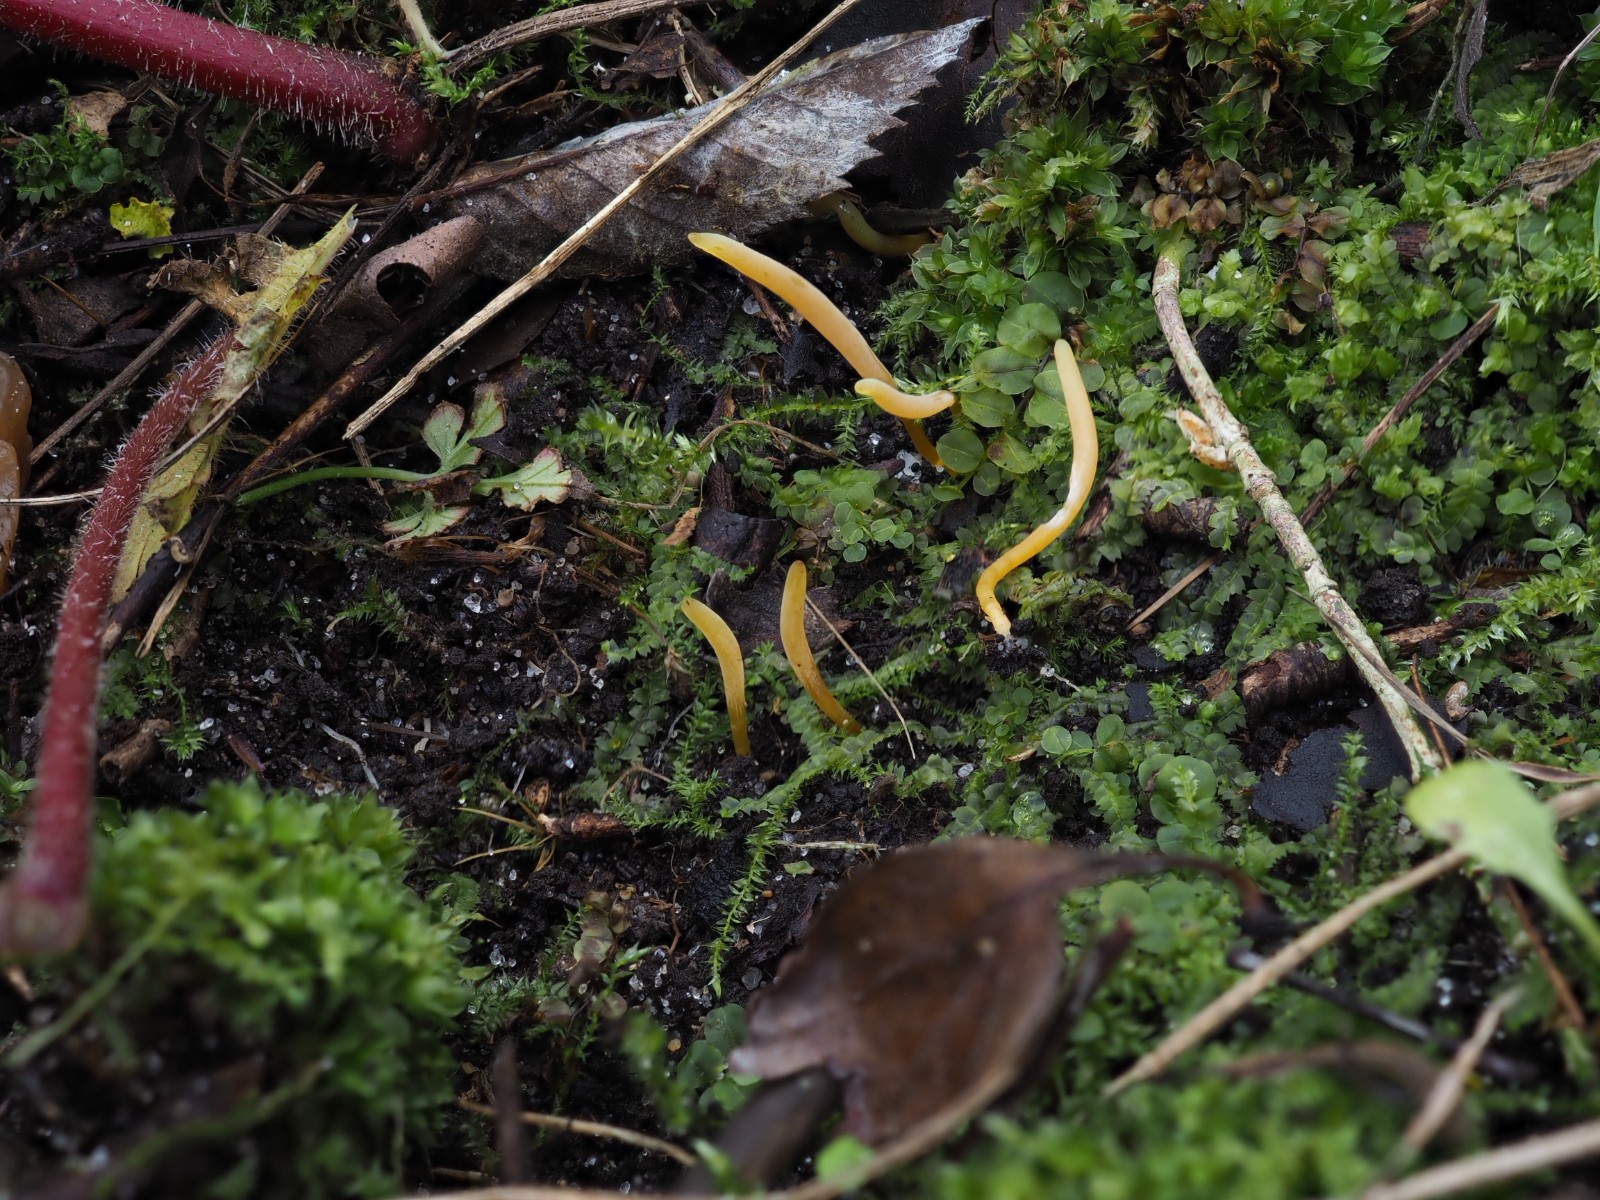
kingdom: Fungi
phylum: Basidiomycota
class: Agaricomycetes
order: Agaricales
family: Clavariaceae
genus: Clavaria
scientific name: Clavaria flavostellifera
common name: stjernegul køllesvamp
